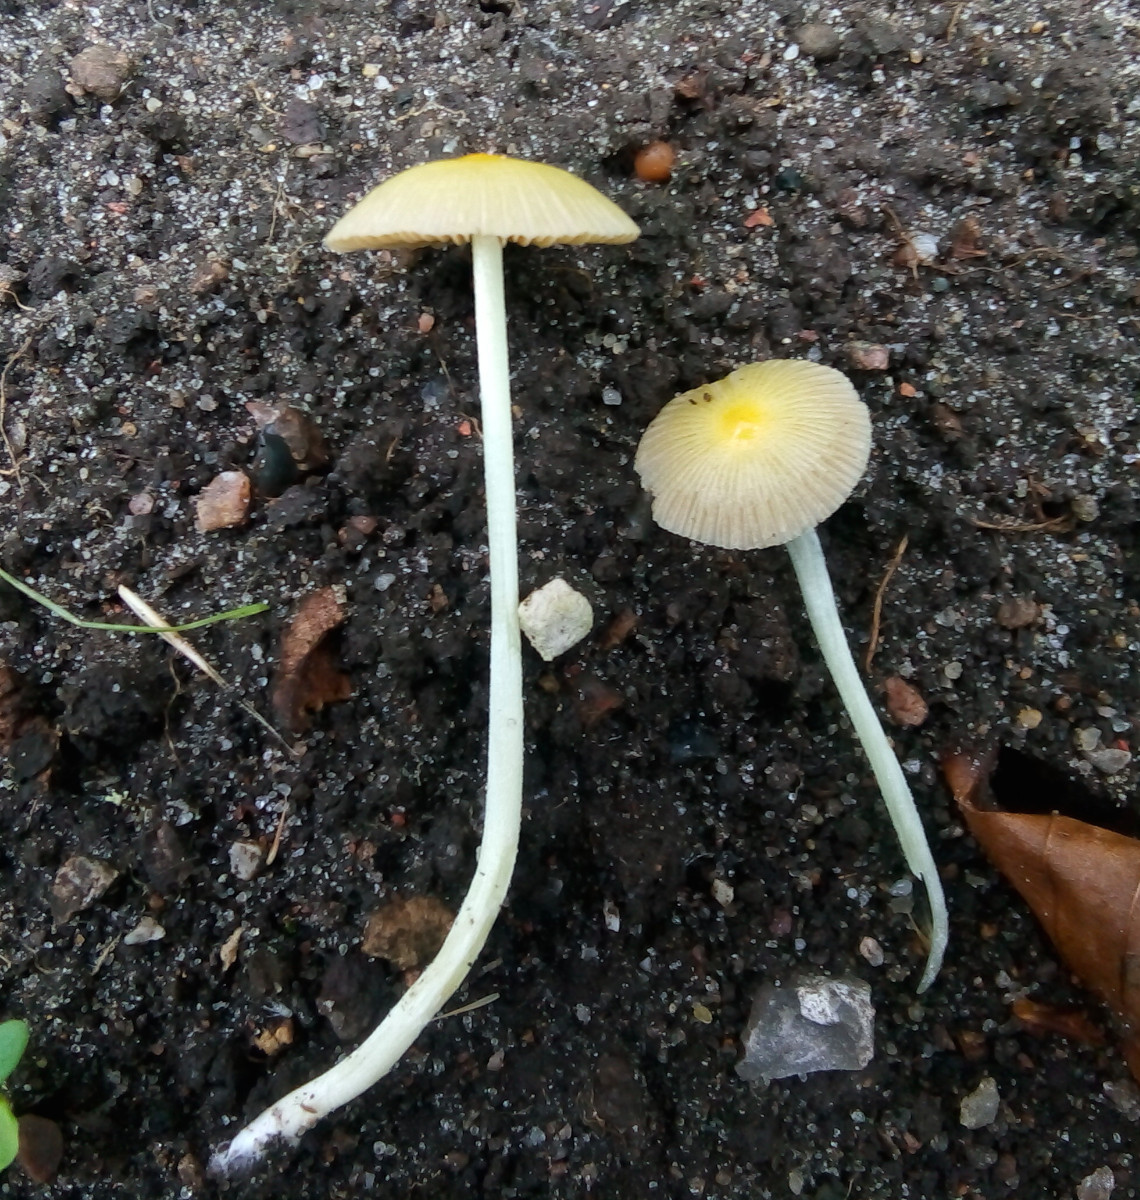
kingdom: Fungi
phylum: Basidiomycota
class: Agaricomycetes
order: Agaricales
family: Bolbitiaceae
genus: Bolbitius
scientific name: Bolbitius titubans
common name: almindelig gulhat
